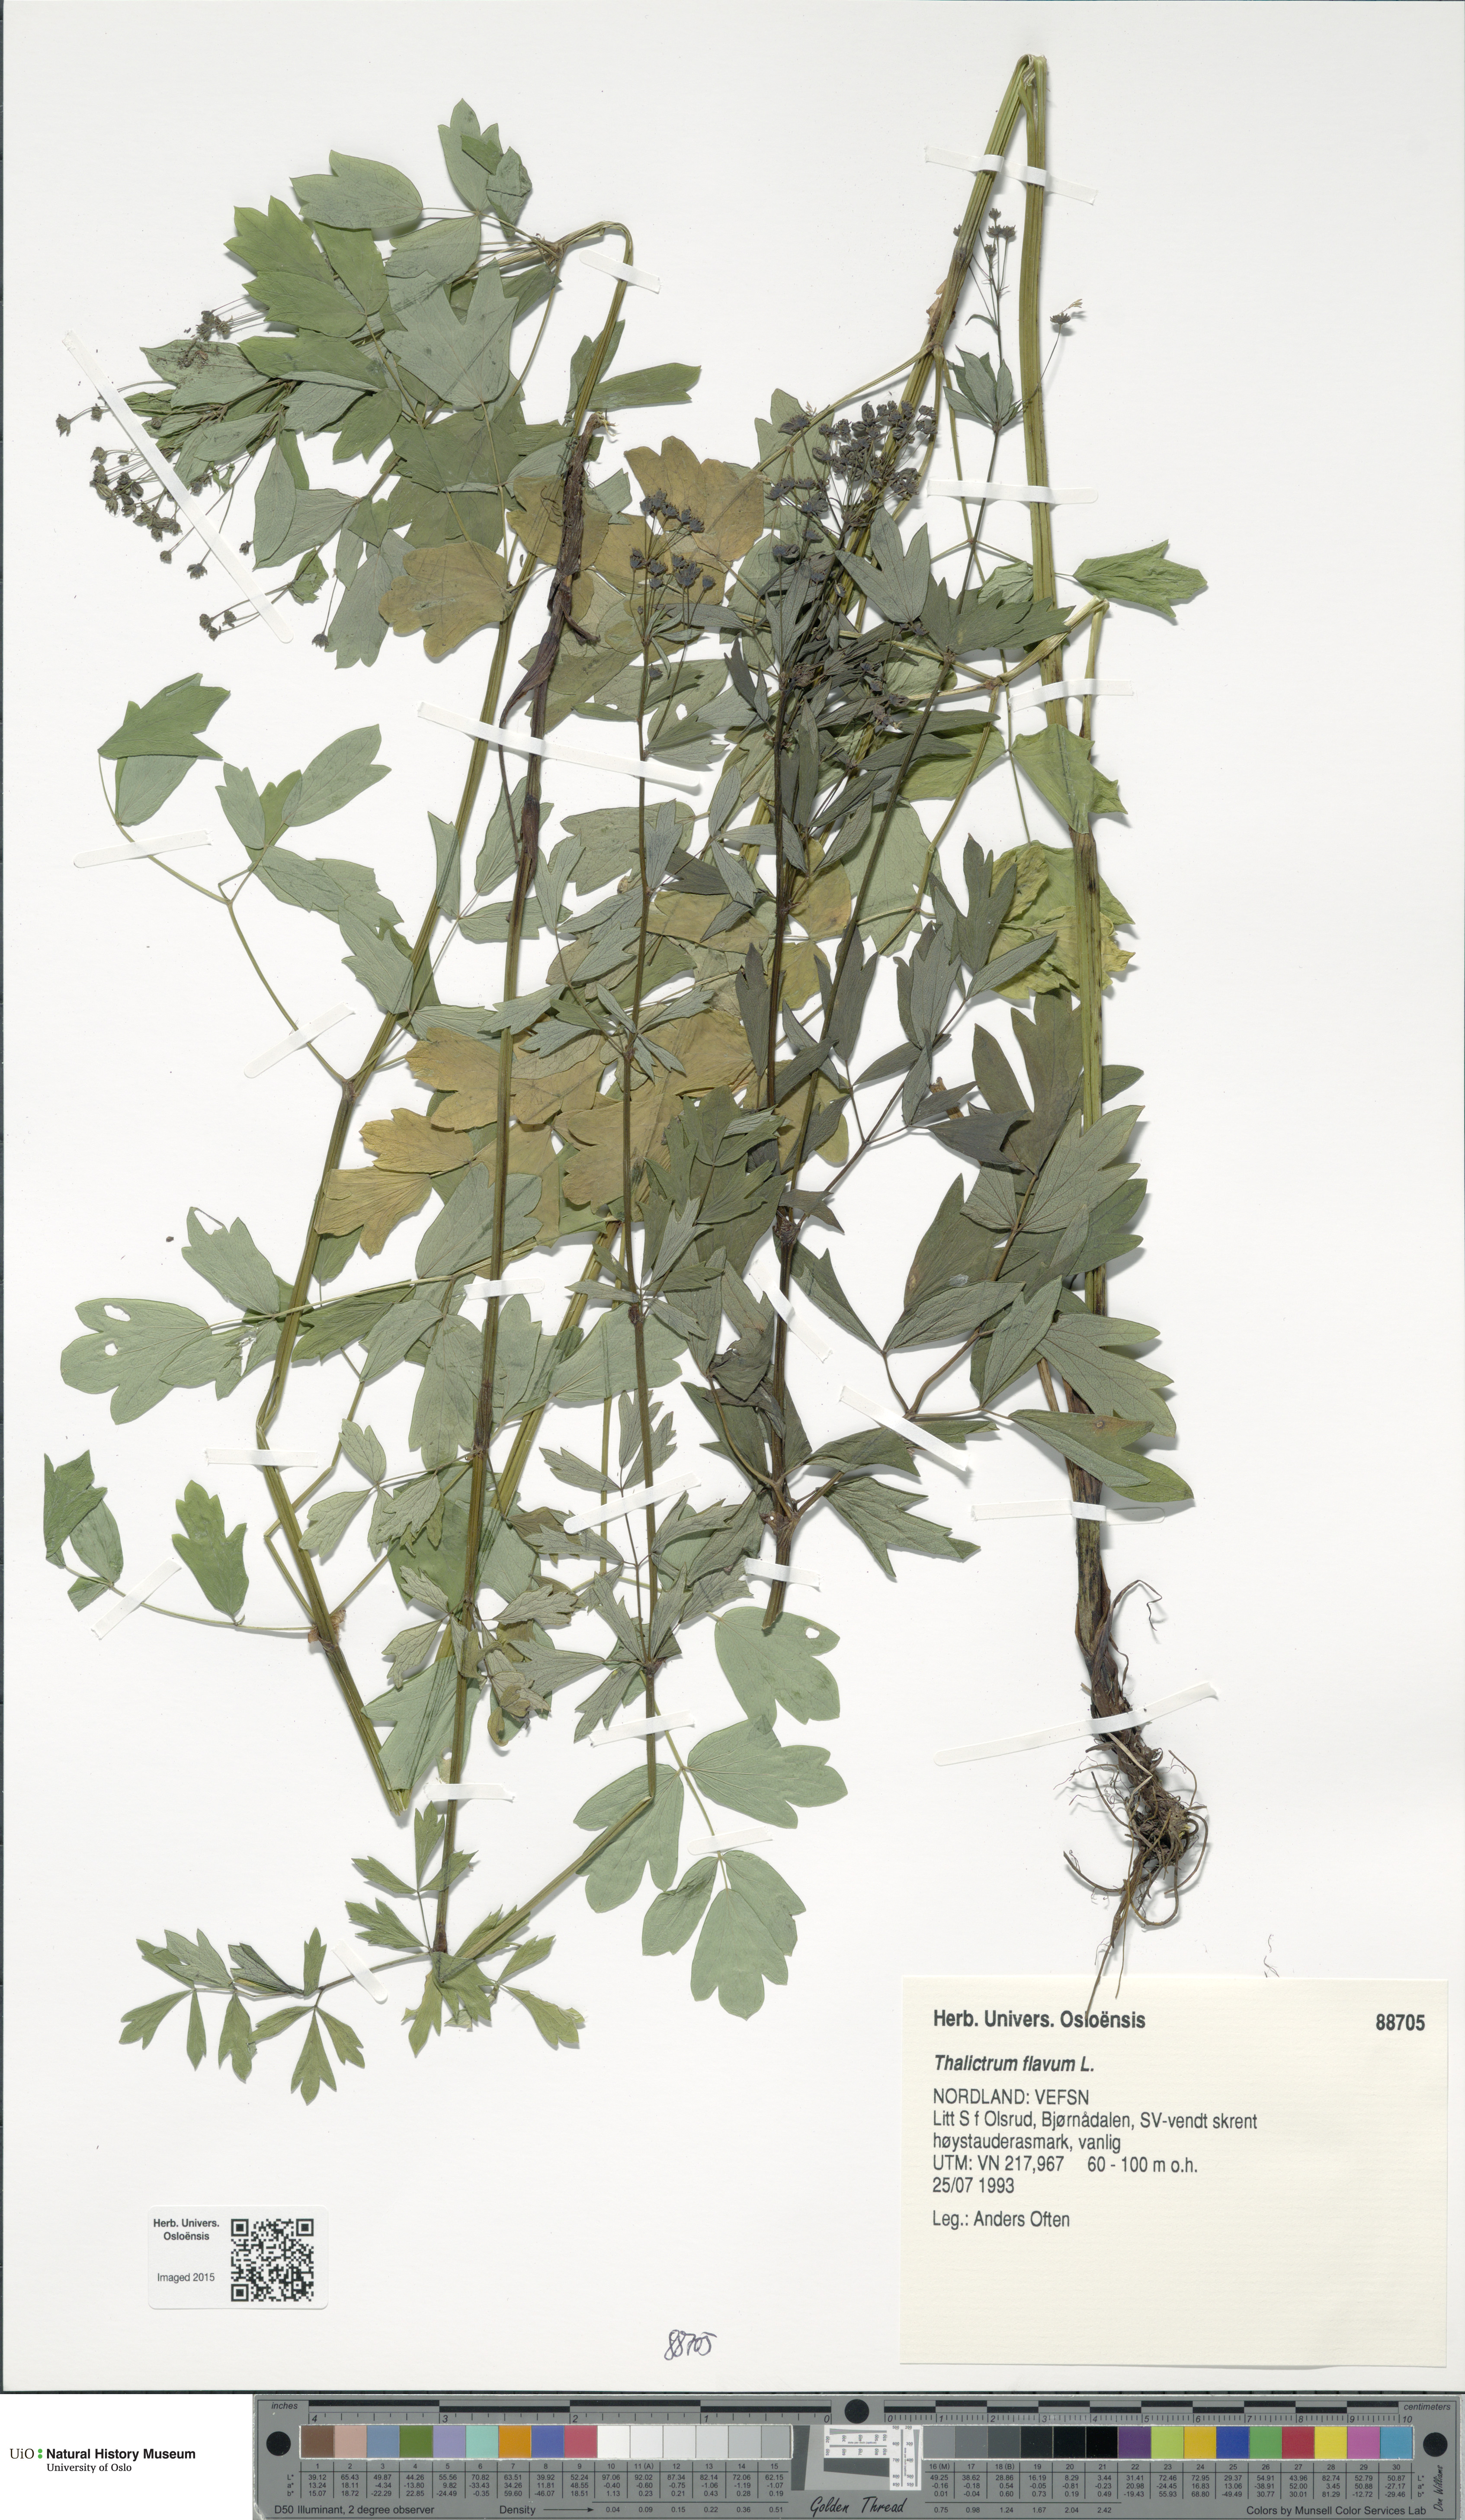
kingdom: Plantae
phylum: Tracheophyta
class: Magnoliopsida
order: Ranunculales
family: Ranunculaceae
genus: Thalictrum
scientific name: Thalictrum flavum
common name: Common meadow-rue
